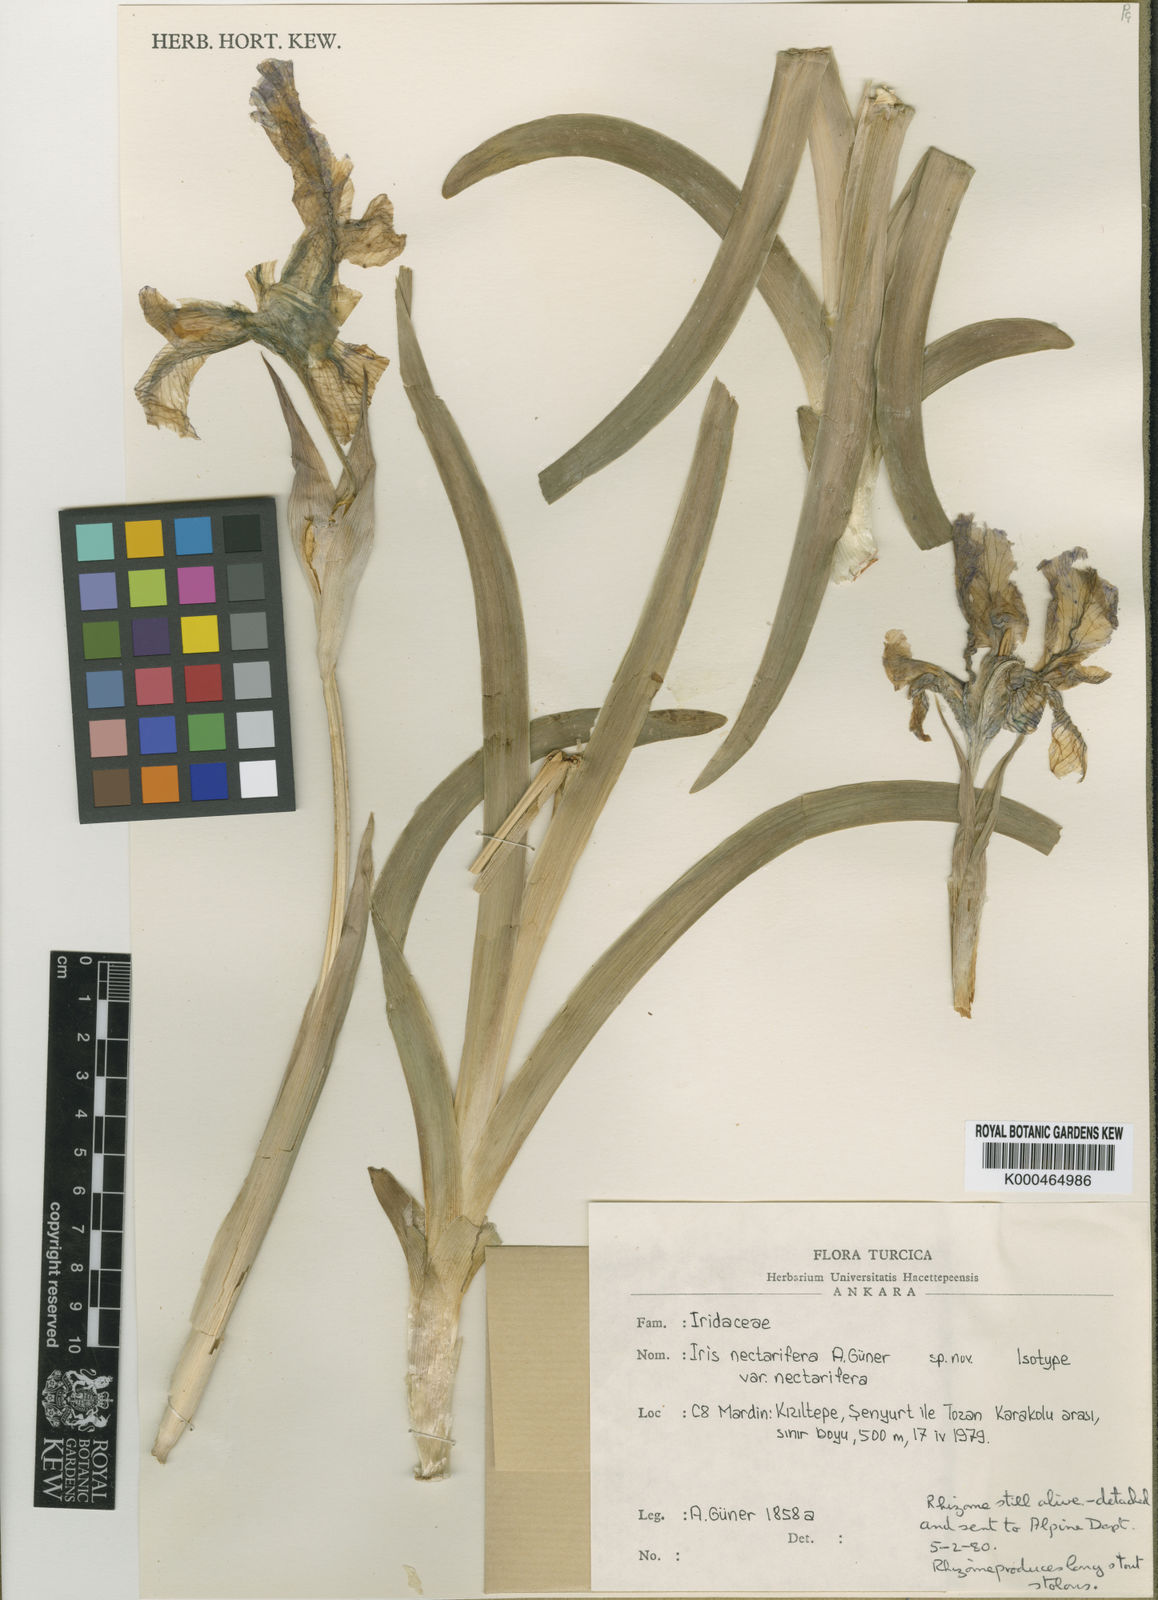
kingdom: Plantae
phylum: Tracheophyta
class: Liliopsida
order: Asparagales
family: Iridaceae
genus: Iris
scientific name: Iris maculata
